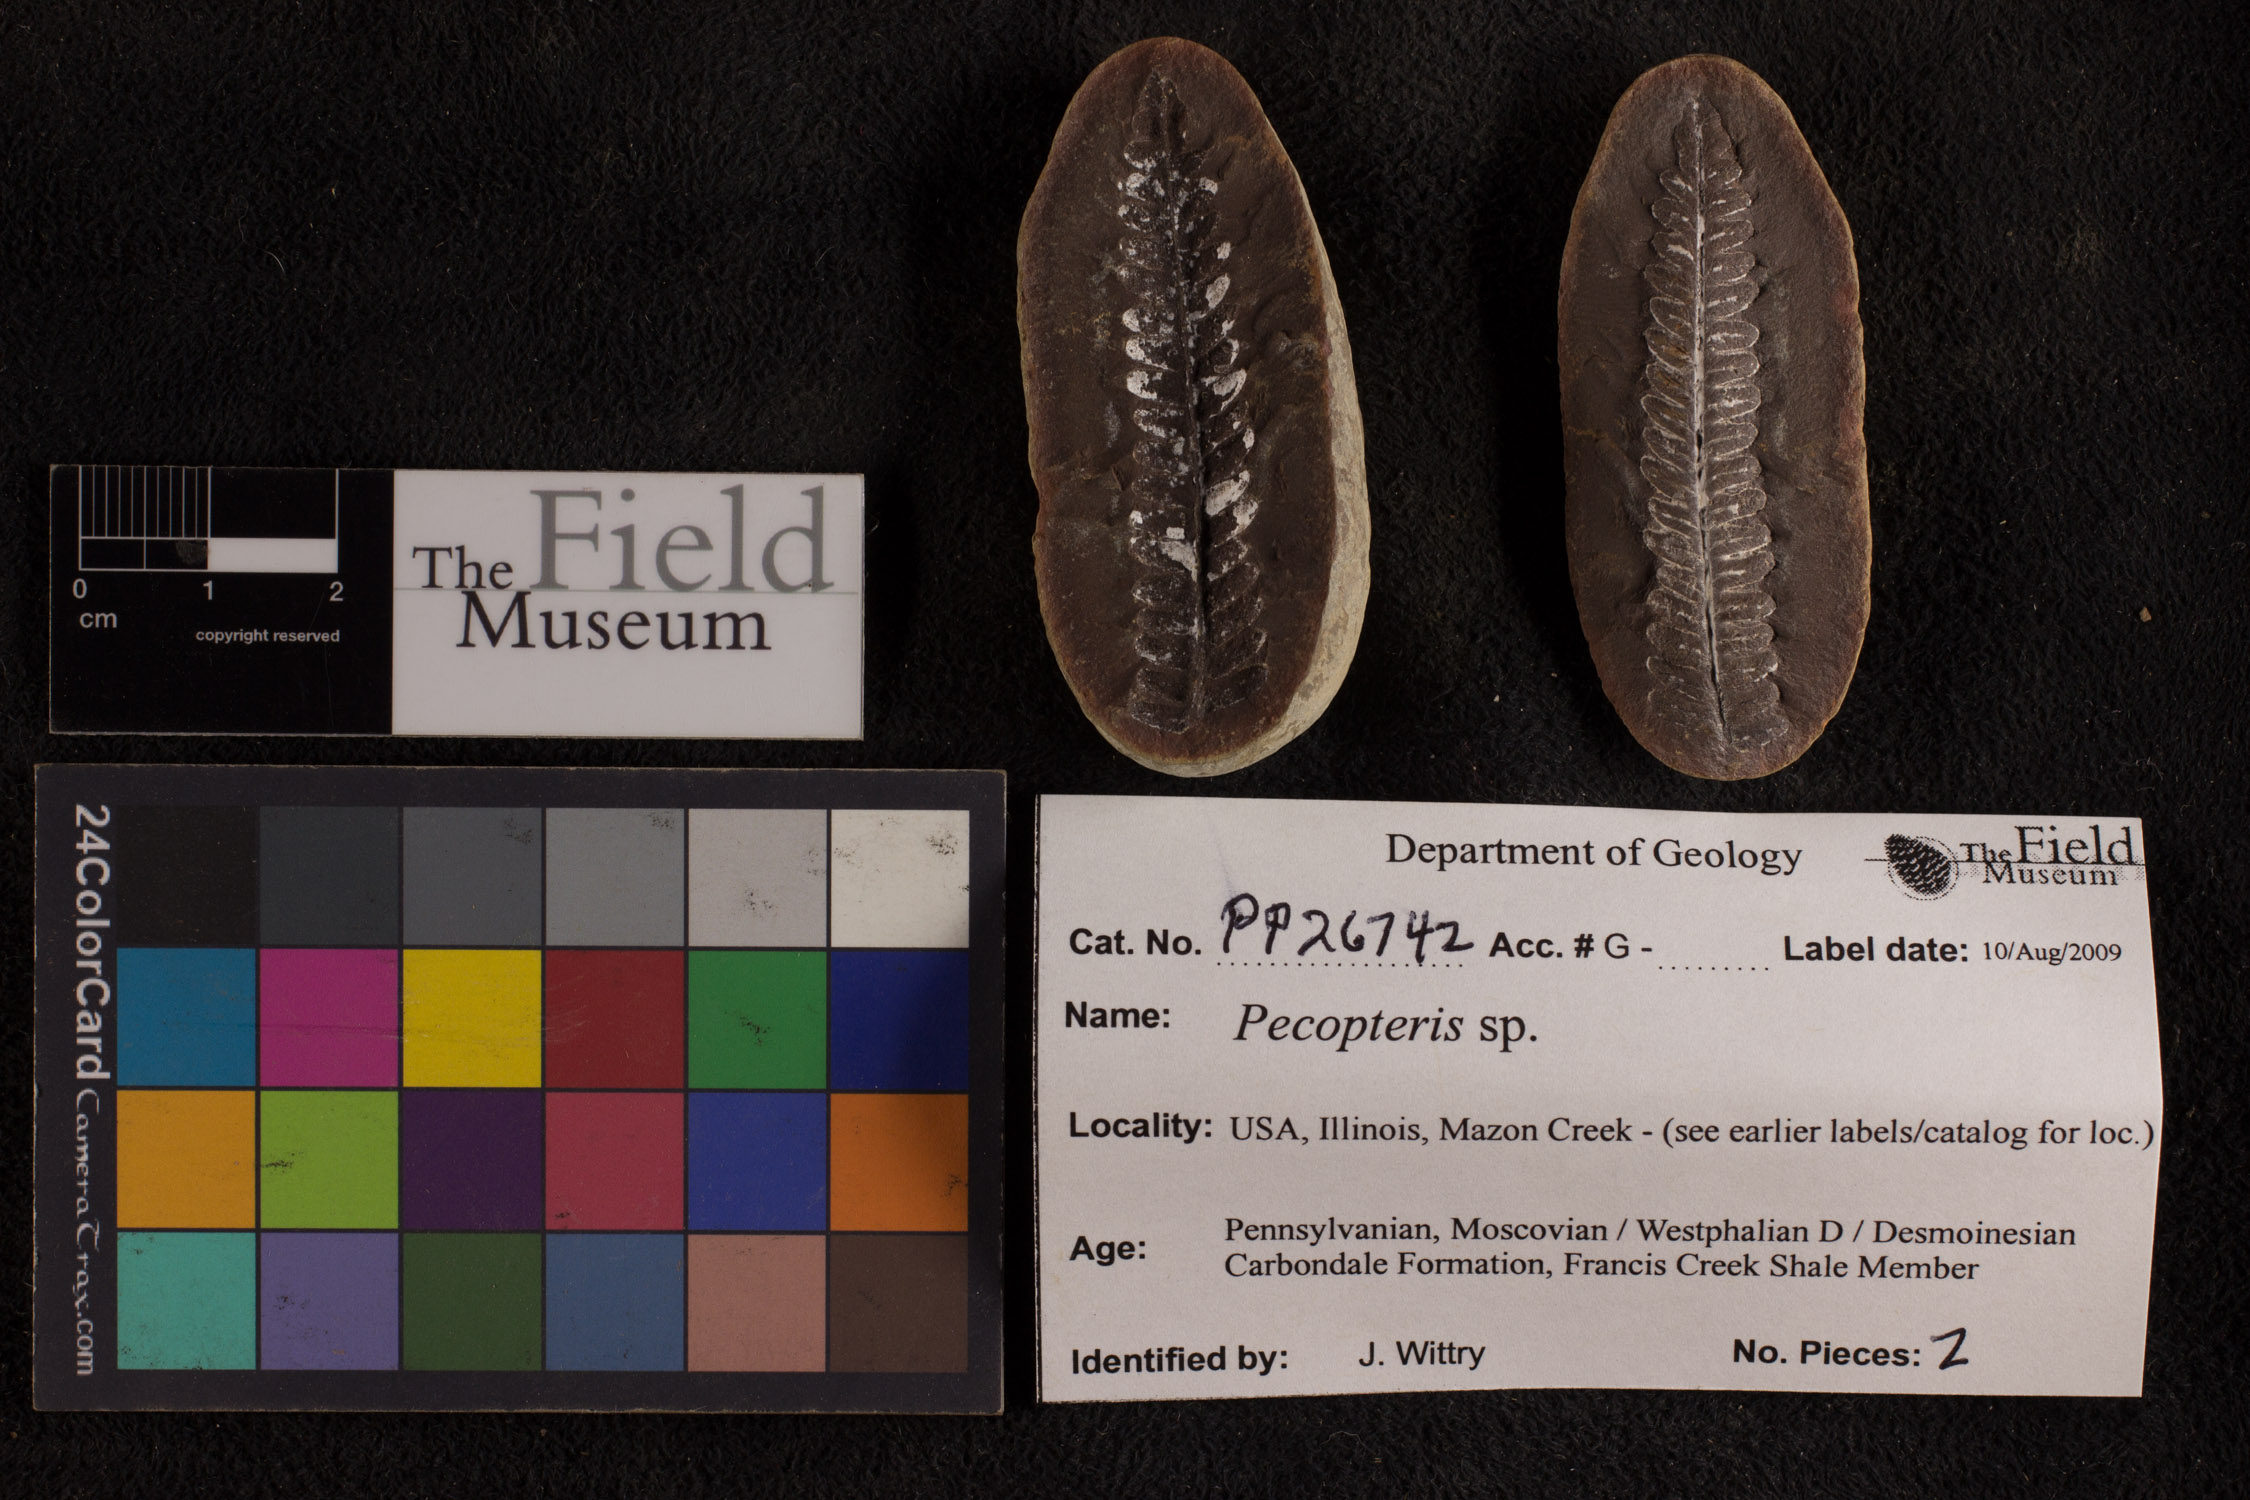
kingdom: Plantae
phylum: Tracheophyta
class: Polypodiopsida
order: Marattiales
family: Asterothecaceae
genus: Pecopteris
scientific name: Pecopteris
